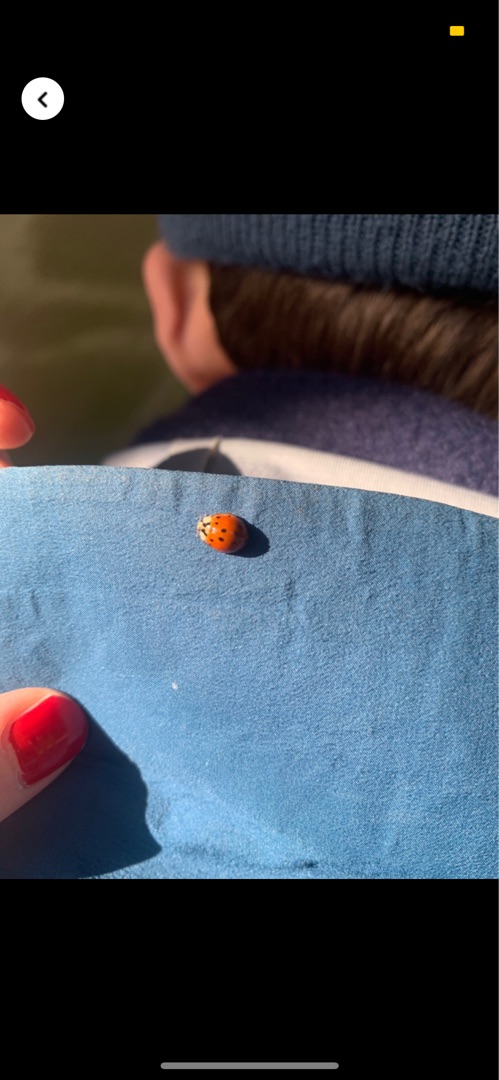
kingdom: Animalia
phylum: Arthropoda
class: Insecta
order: Coleoptera
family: Coccinellidae
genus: Harmonia
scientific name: Harmonia axyridis
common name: Harlekinmariehøne
